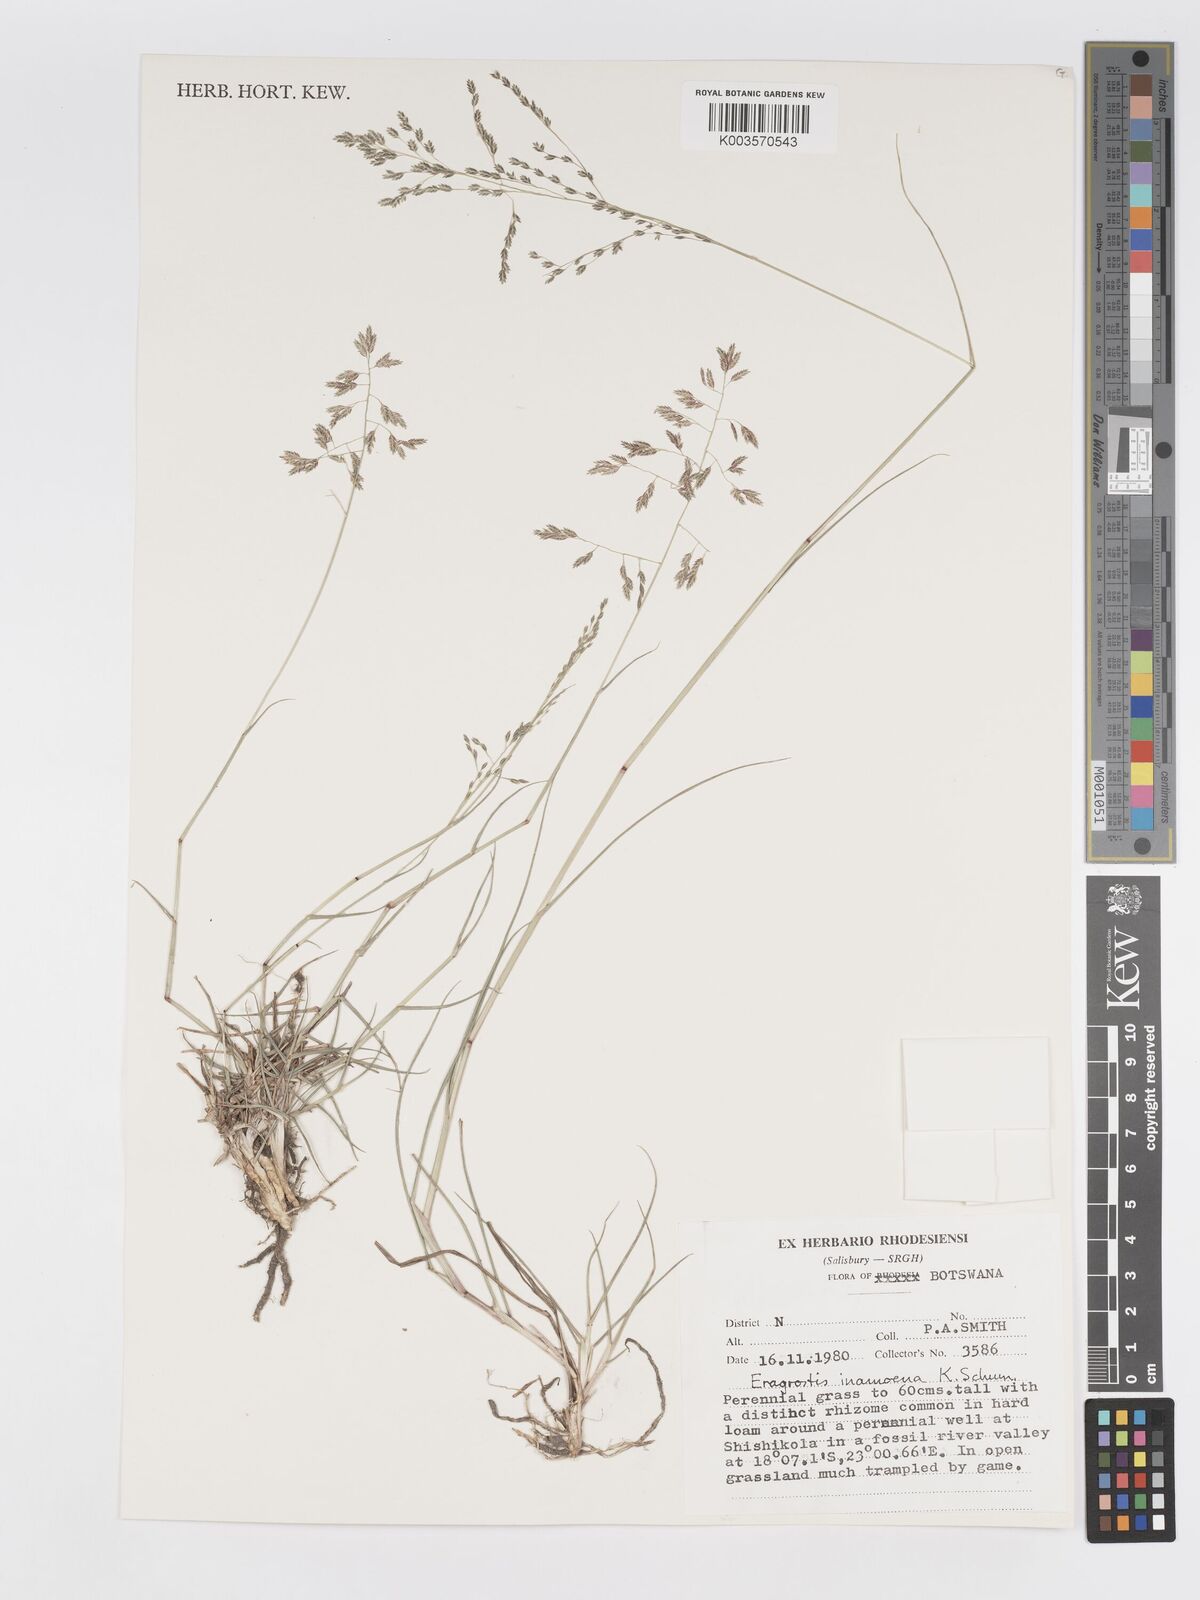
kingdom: Plantae
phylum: Tracheophyta
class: Liliopsida
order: Poales
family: Poaceae
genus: Eragrostis
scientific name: Eragrostis inamoena
